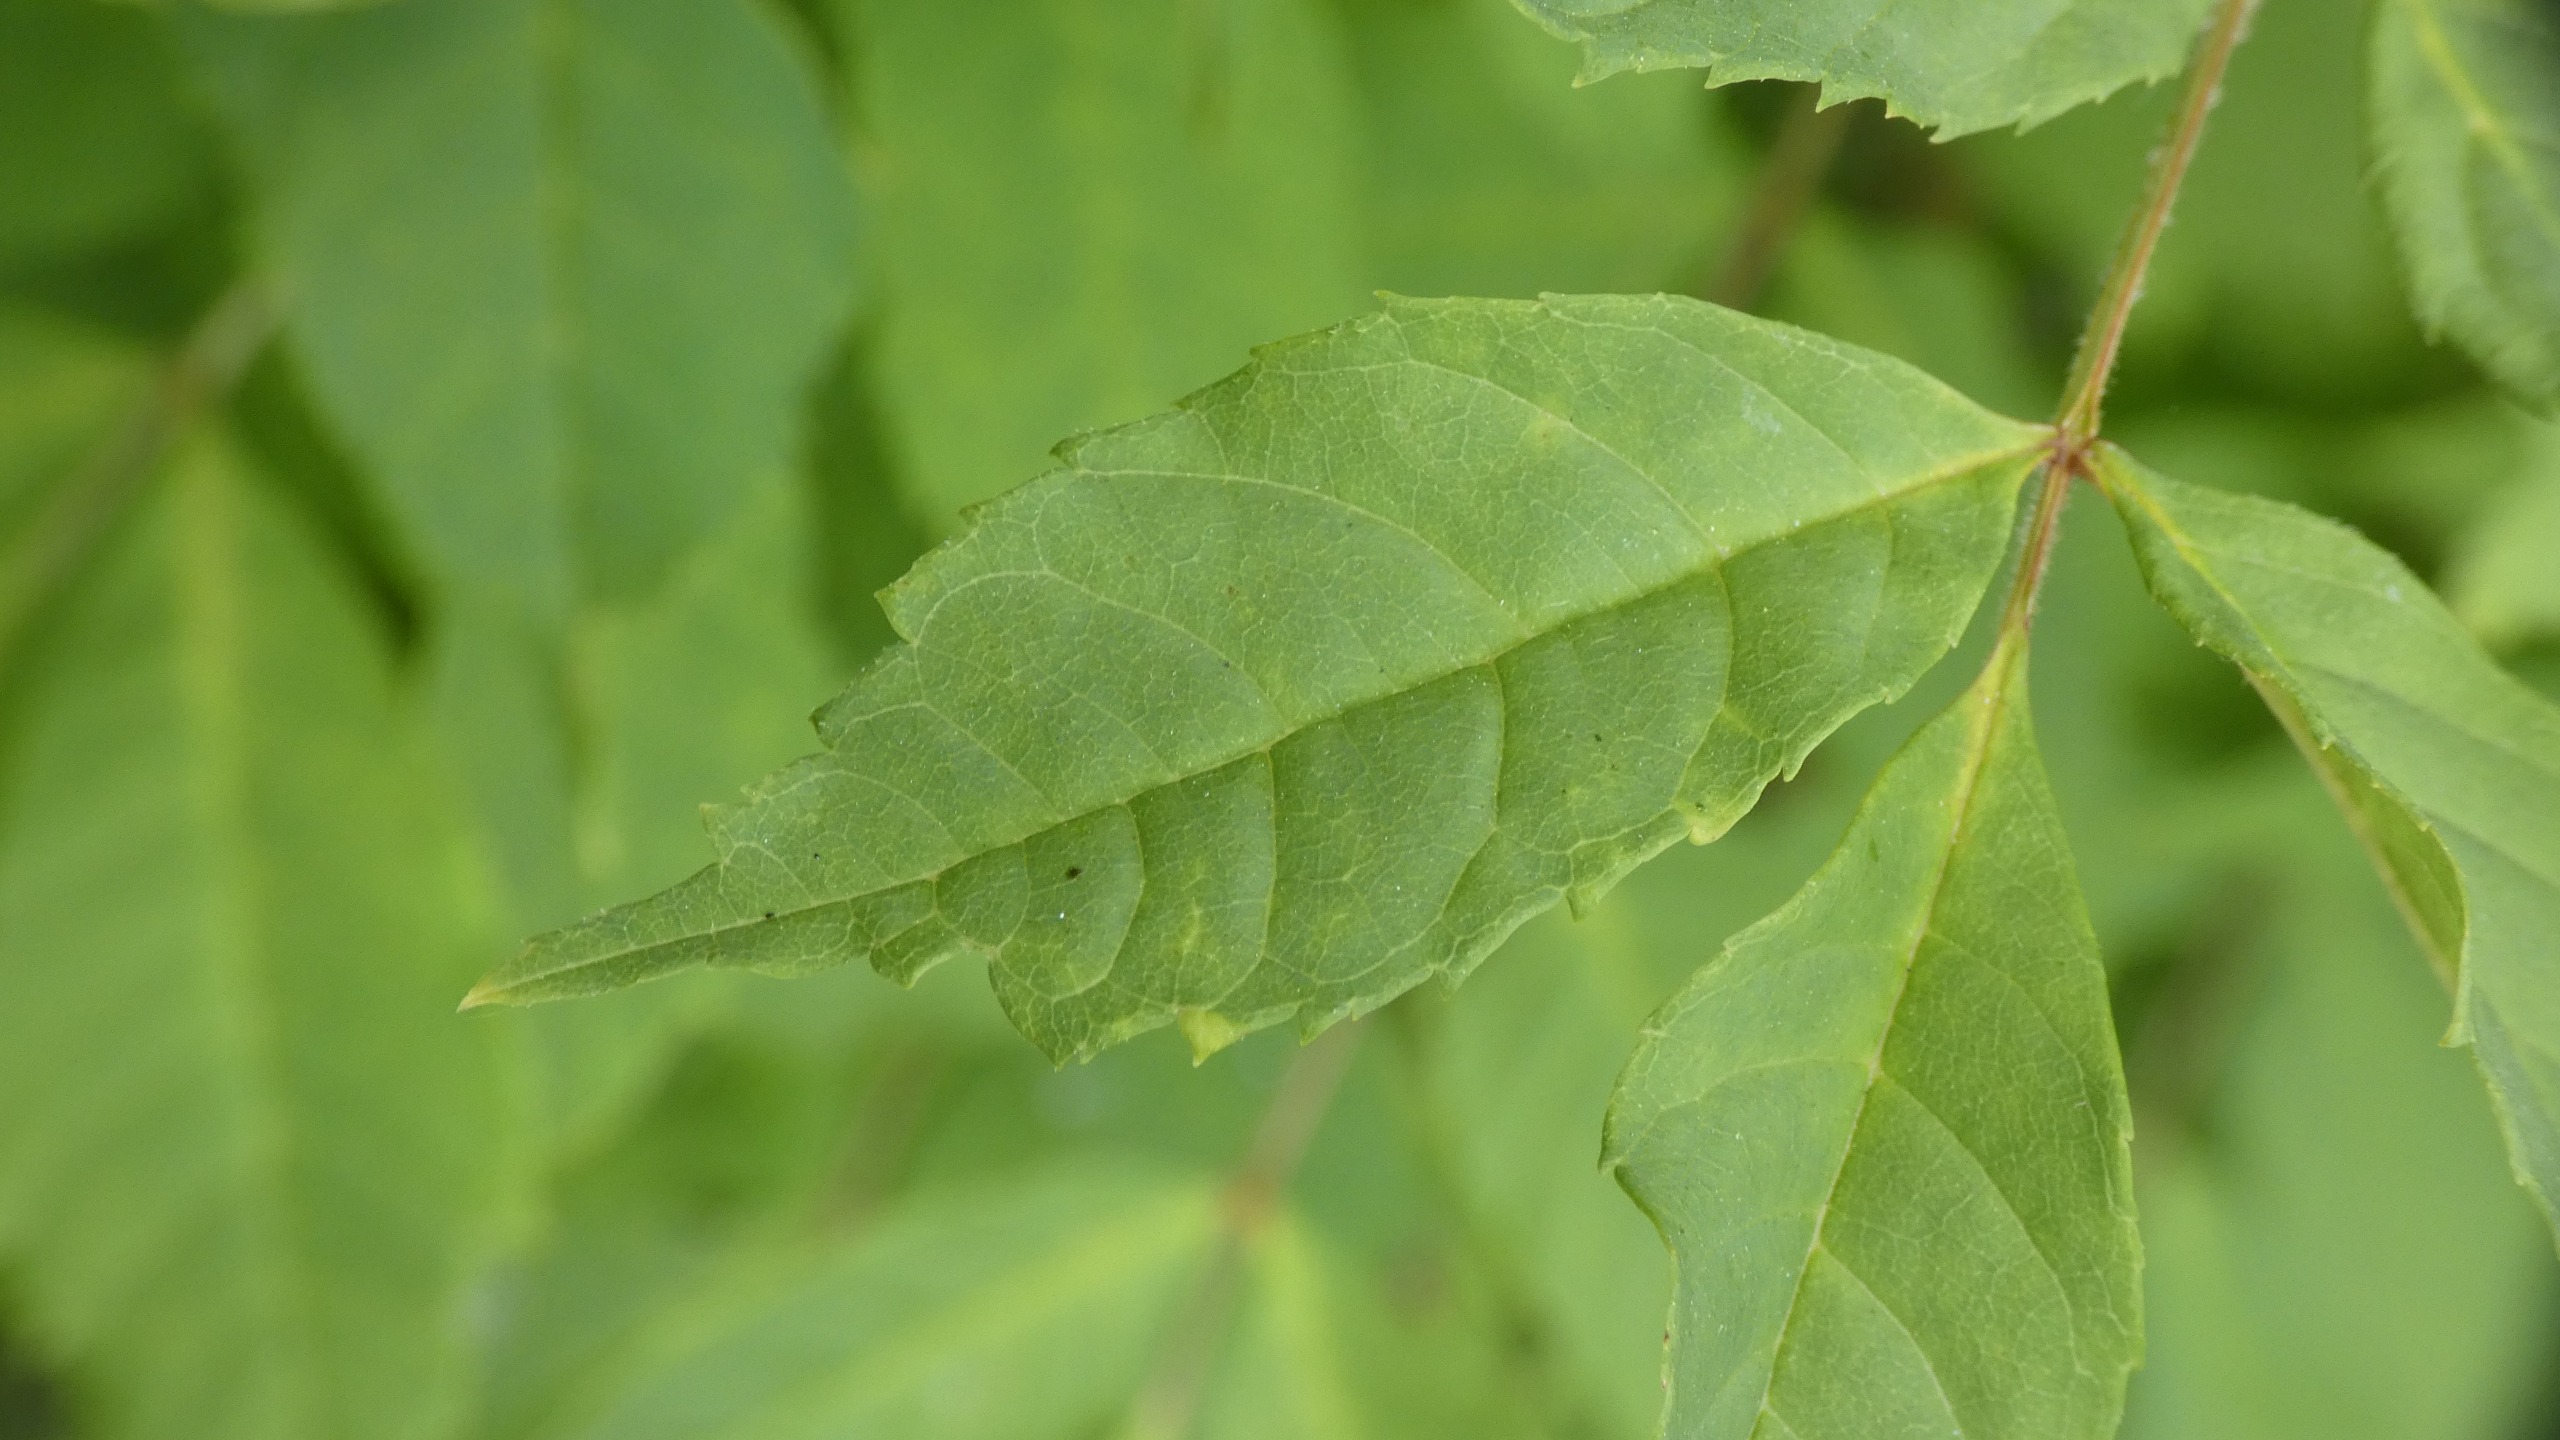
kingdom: Plantae
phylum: Tracheophyta
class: Magnoliopsida
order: Lamiales
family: Oleaceae
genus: Fraxinus
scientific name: Fraxinus excelsior
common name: Ask
